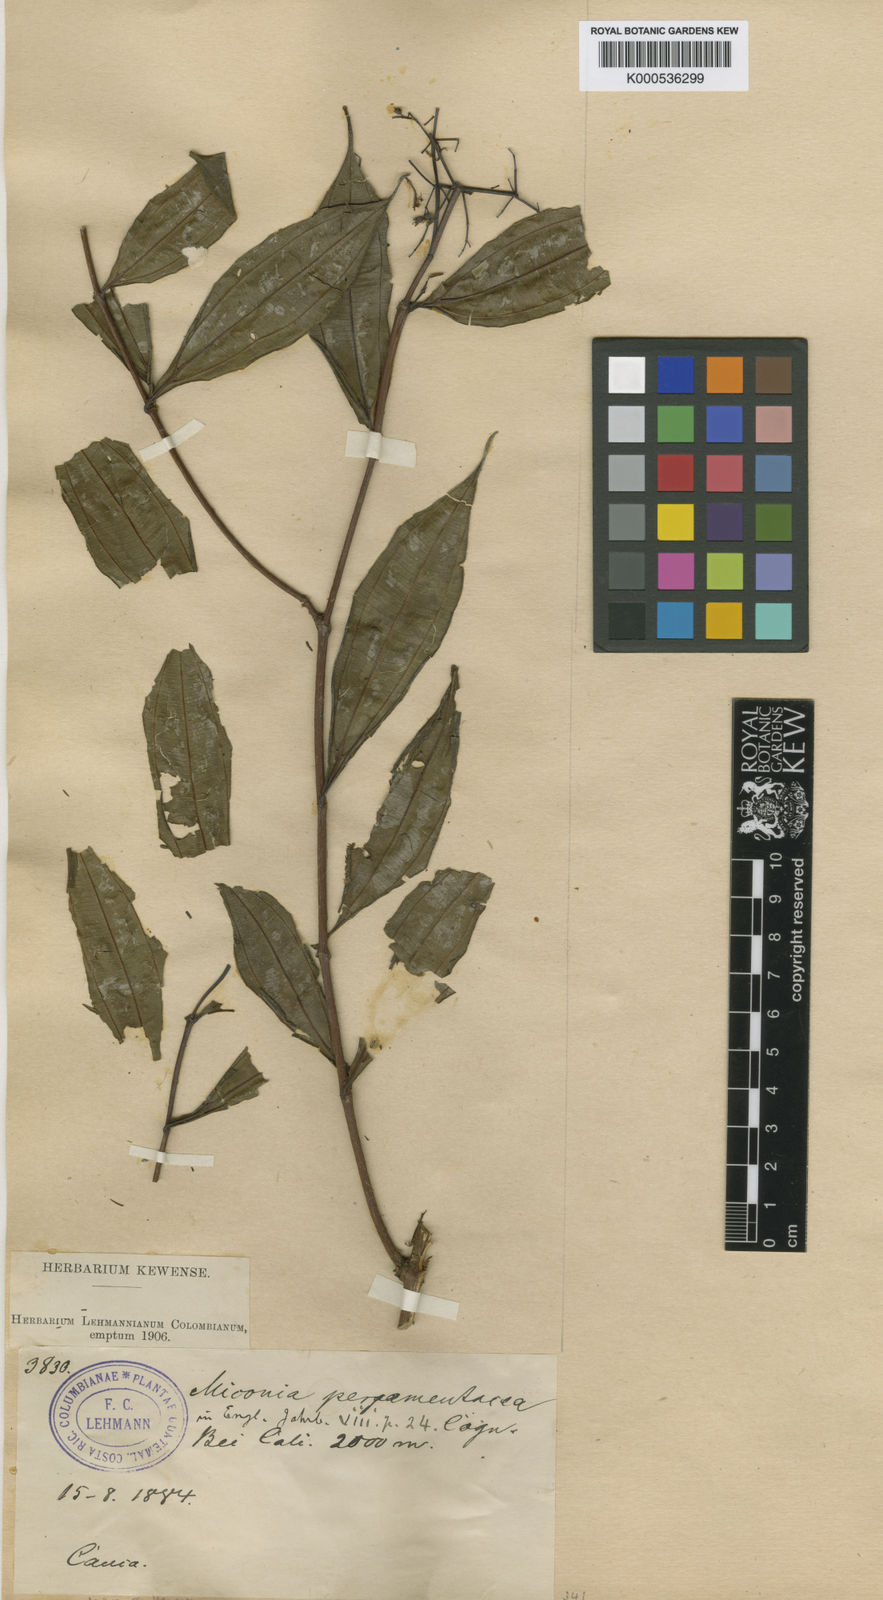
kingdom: Plantae
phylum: Tracheophyta
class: Magnoliopsida
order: Myrtales
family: Melastomataceae
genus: Miconia
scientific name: Miconia pergamentacea
